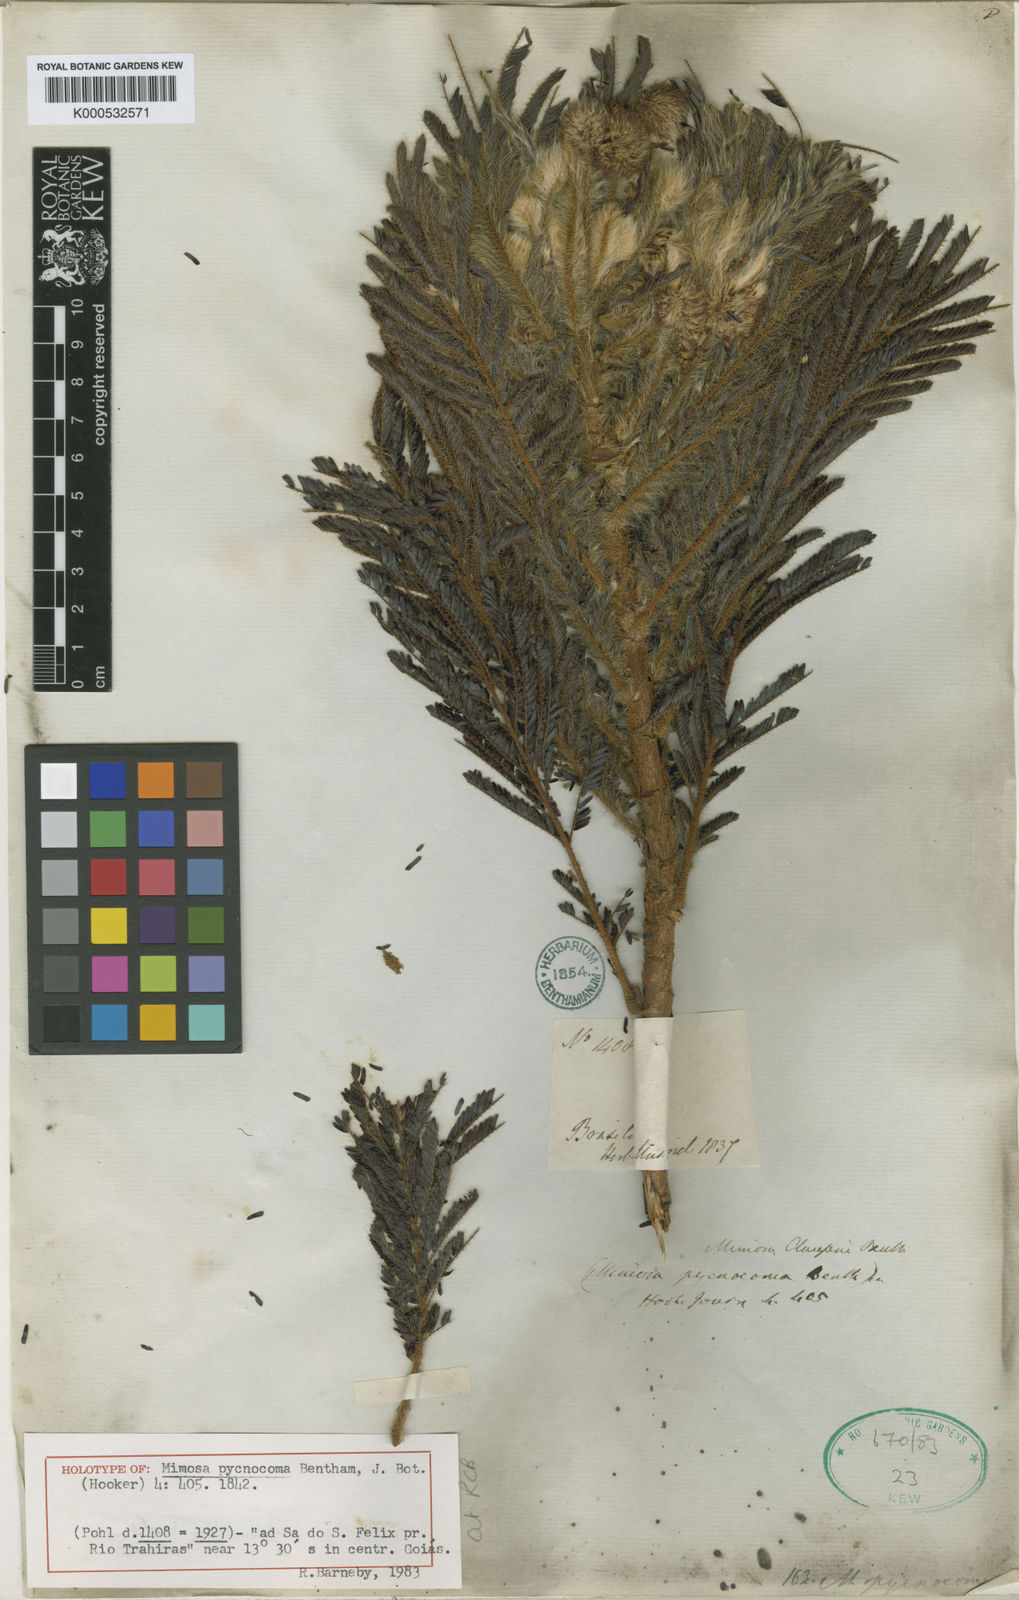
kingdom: Plantae
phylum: Tracheophyta
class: Magnoliopsida
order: Fabales
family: Fabaceae
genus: Mimosa
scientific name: Mimosa
